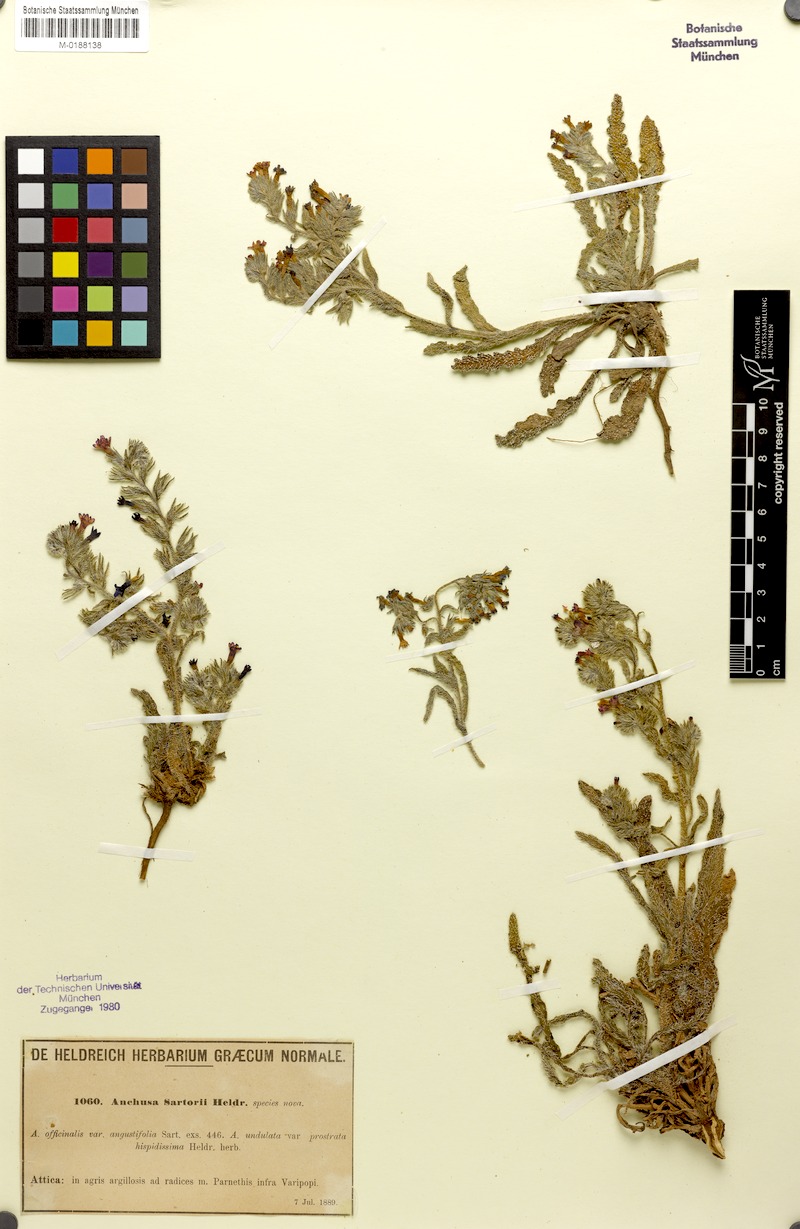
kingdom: Plantae
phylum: Tracheophyta
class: Magnoliopsida
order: Boraginales
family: Boraginaceae
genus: Anchusa
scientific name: Anchusa undulata
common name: Undulate alkanet
